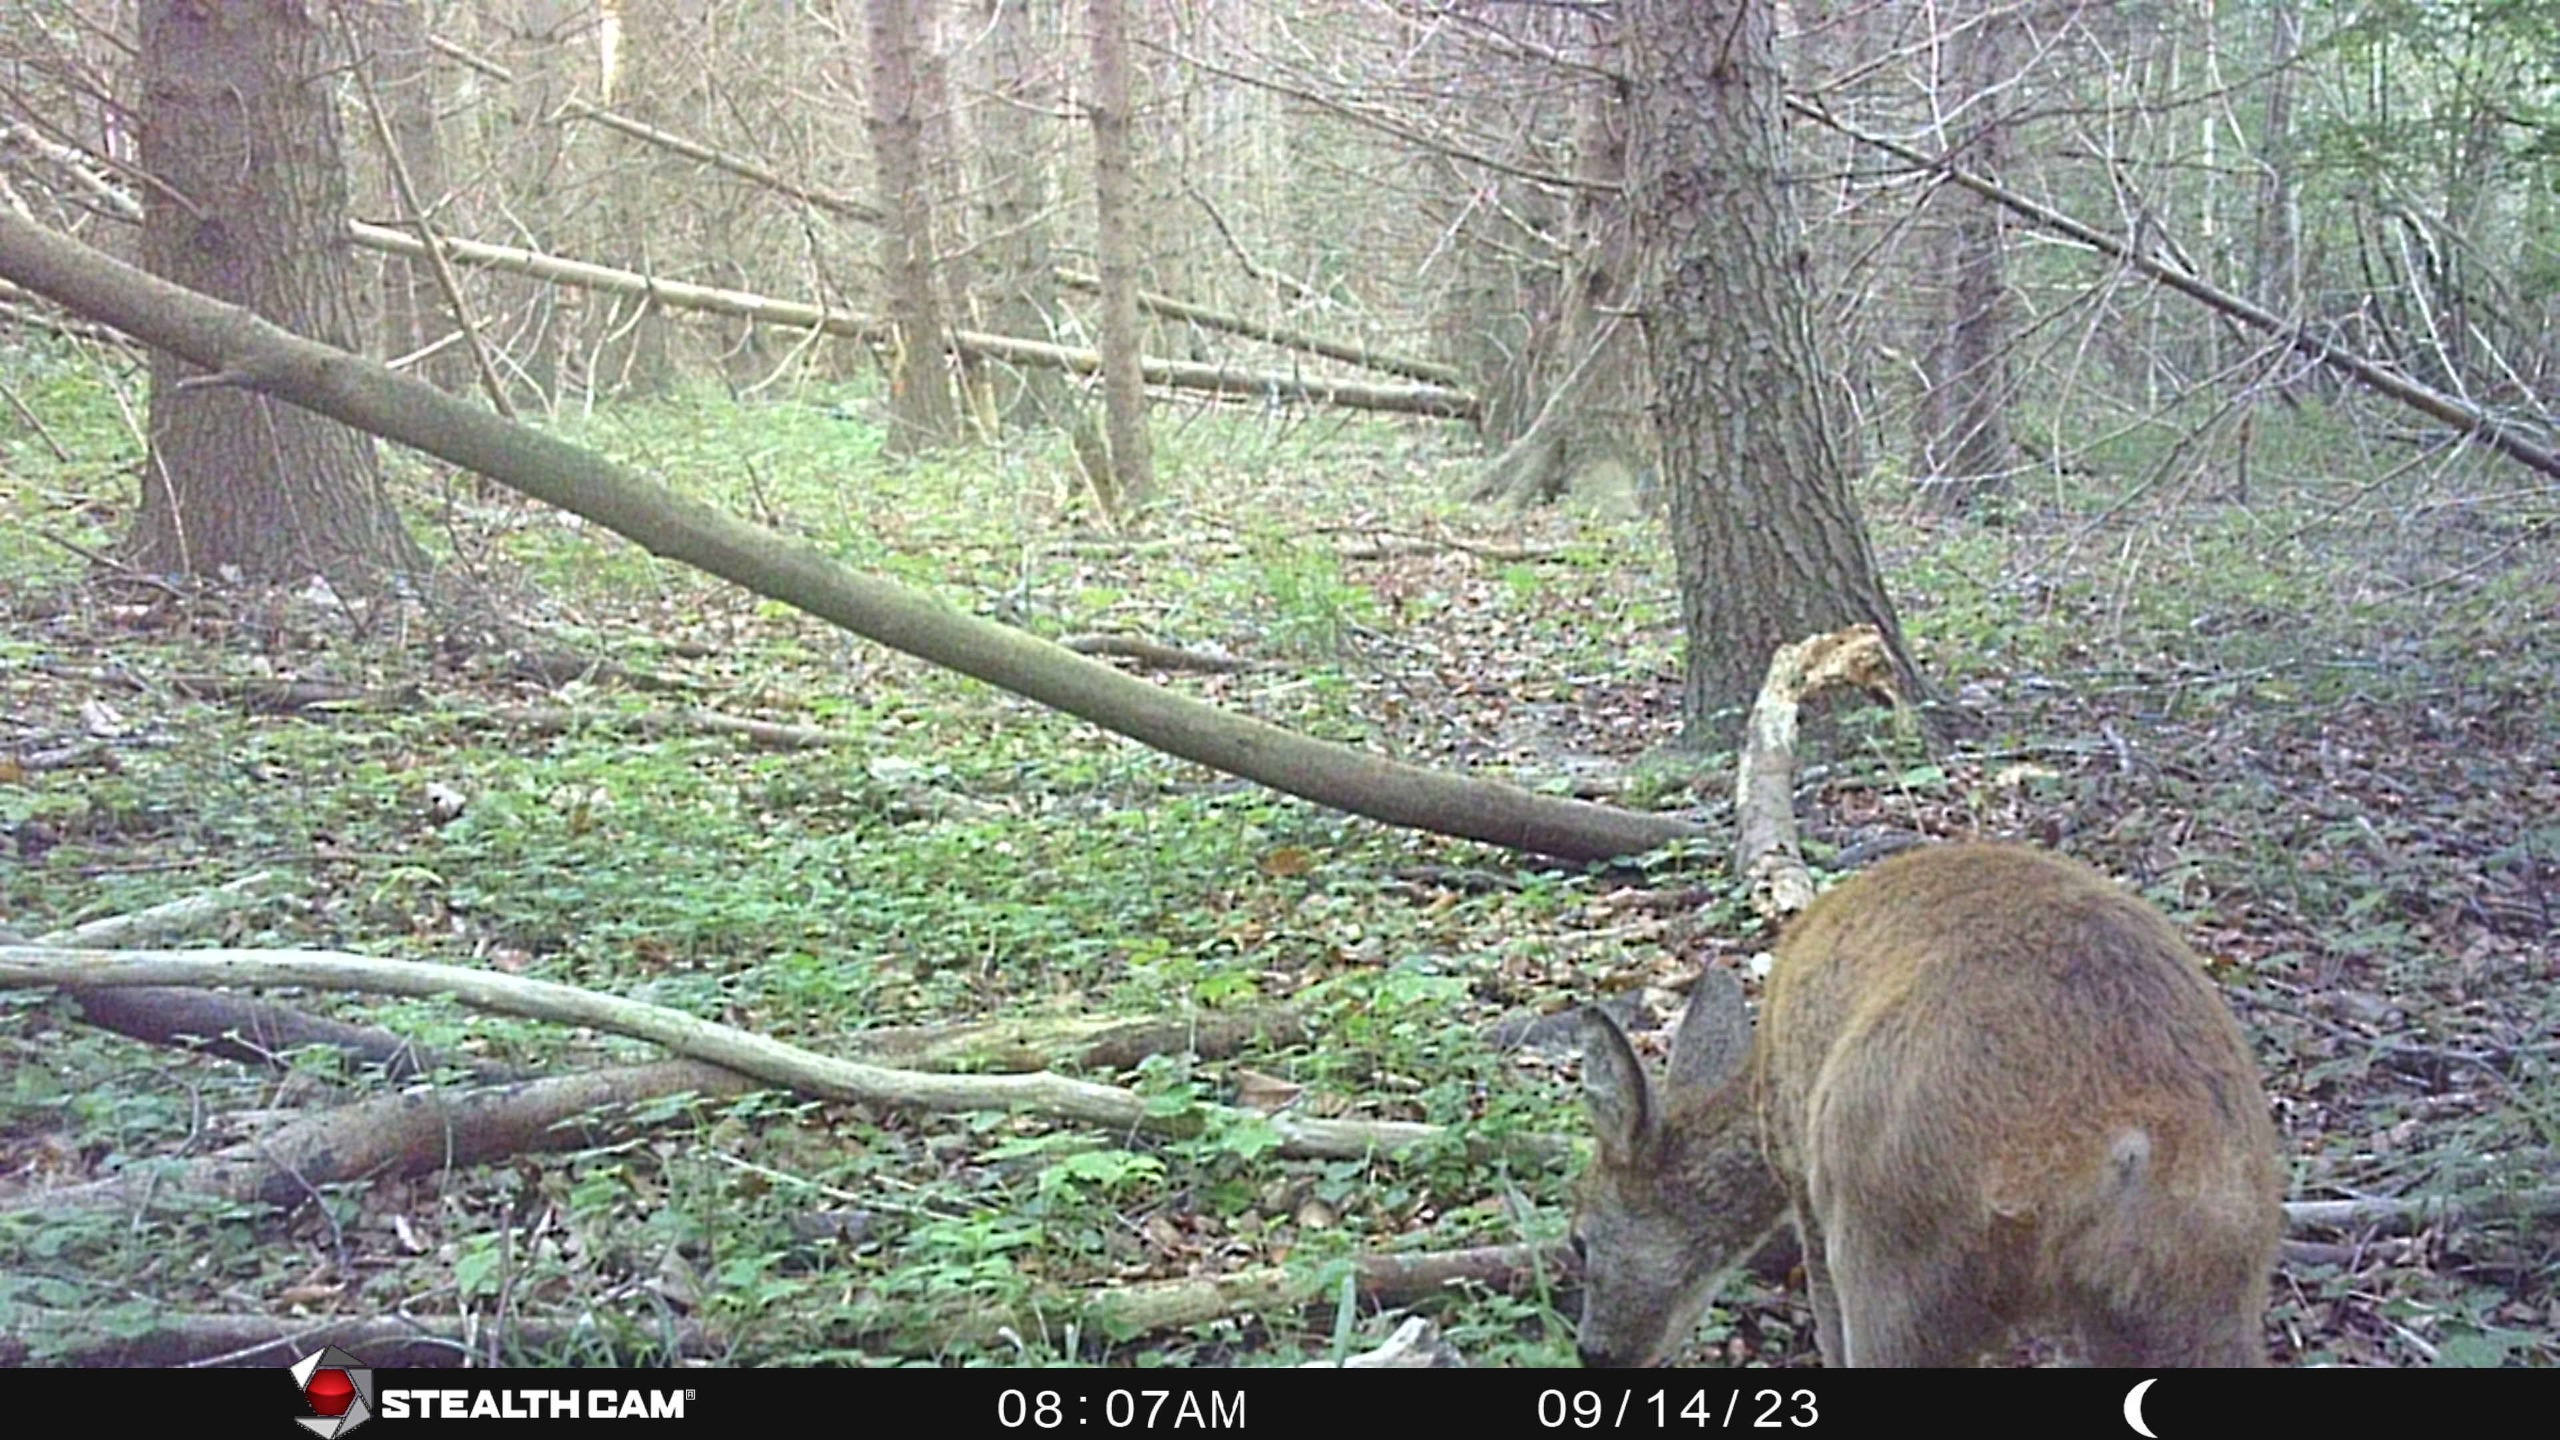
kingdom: Animalia
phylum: Chordata
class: Mammalia
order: Artiodactyla
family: Cervidae
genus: Capreolus
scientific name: Capreolus capreolus
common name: Rådyr
